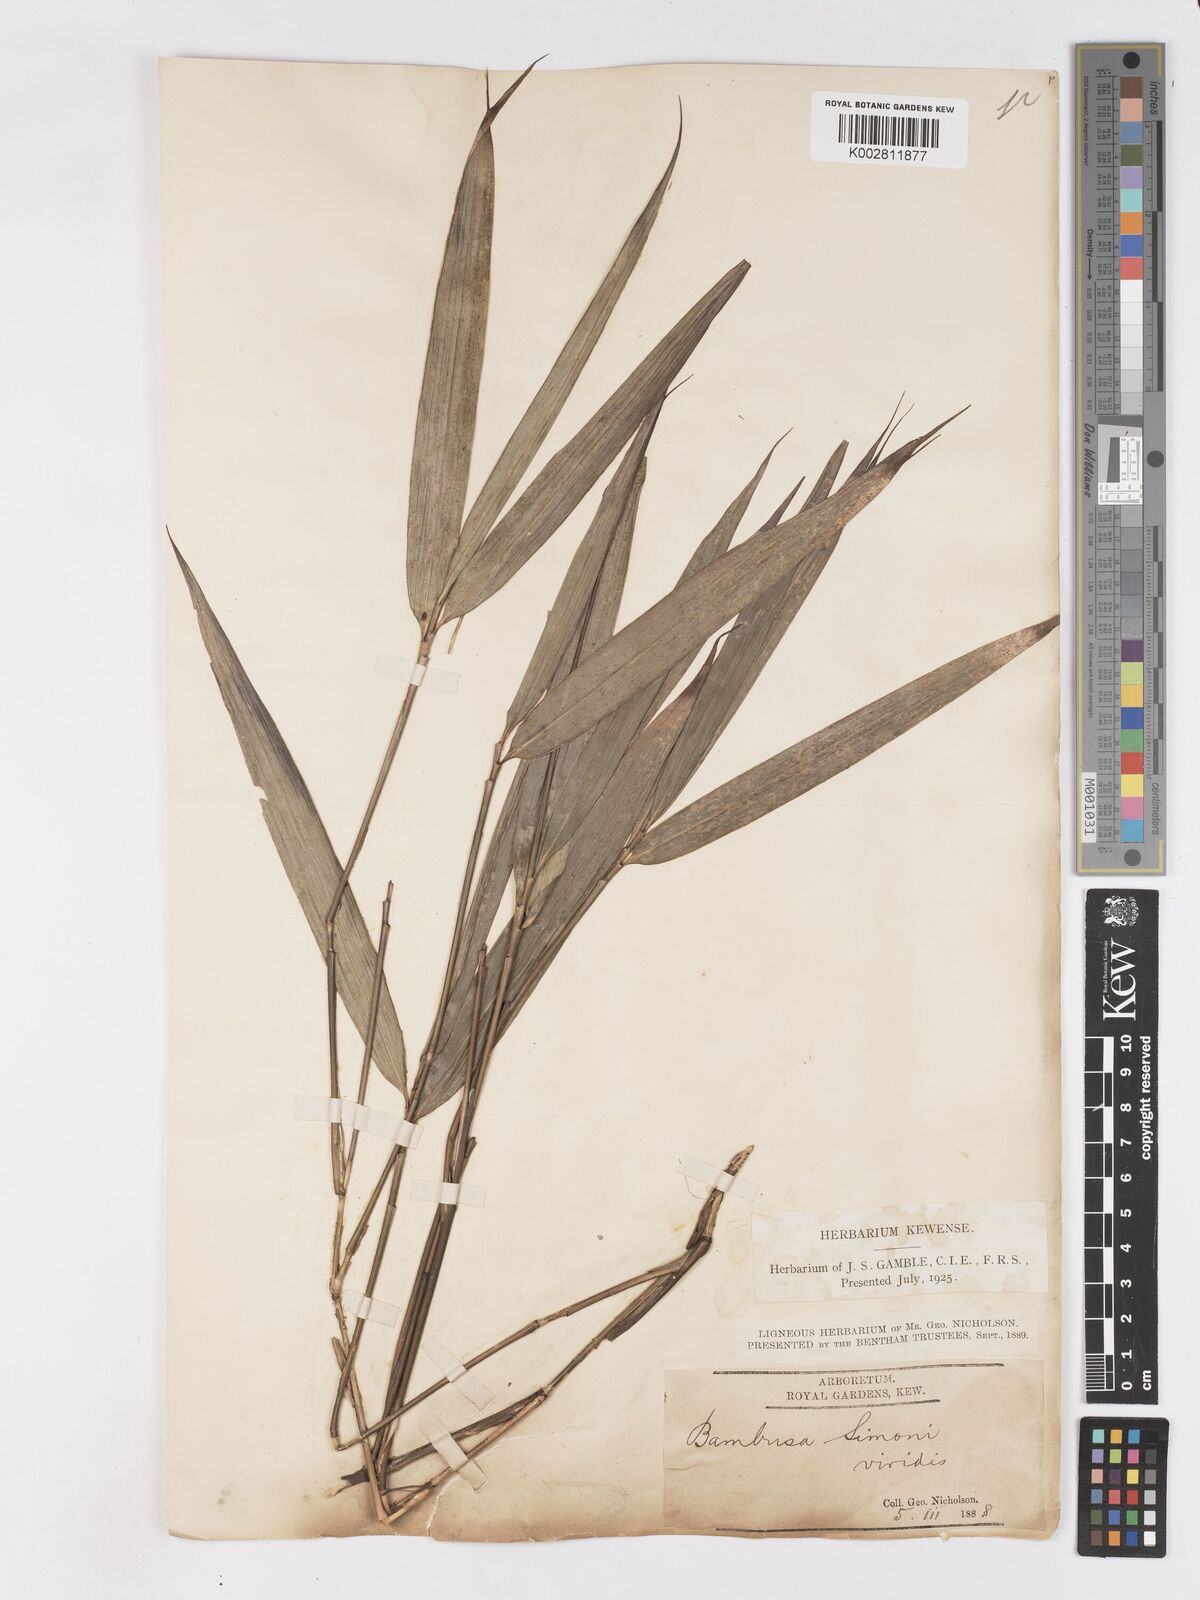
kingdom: Plantae
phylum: Tracheophyta
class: Liliopsida
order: Poales
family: Poaceae
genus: Pleioblastus
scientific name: Pleioblastus simonii
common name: Simon bamboo
